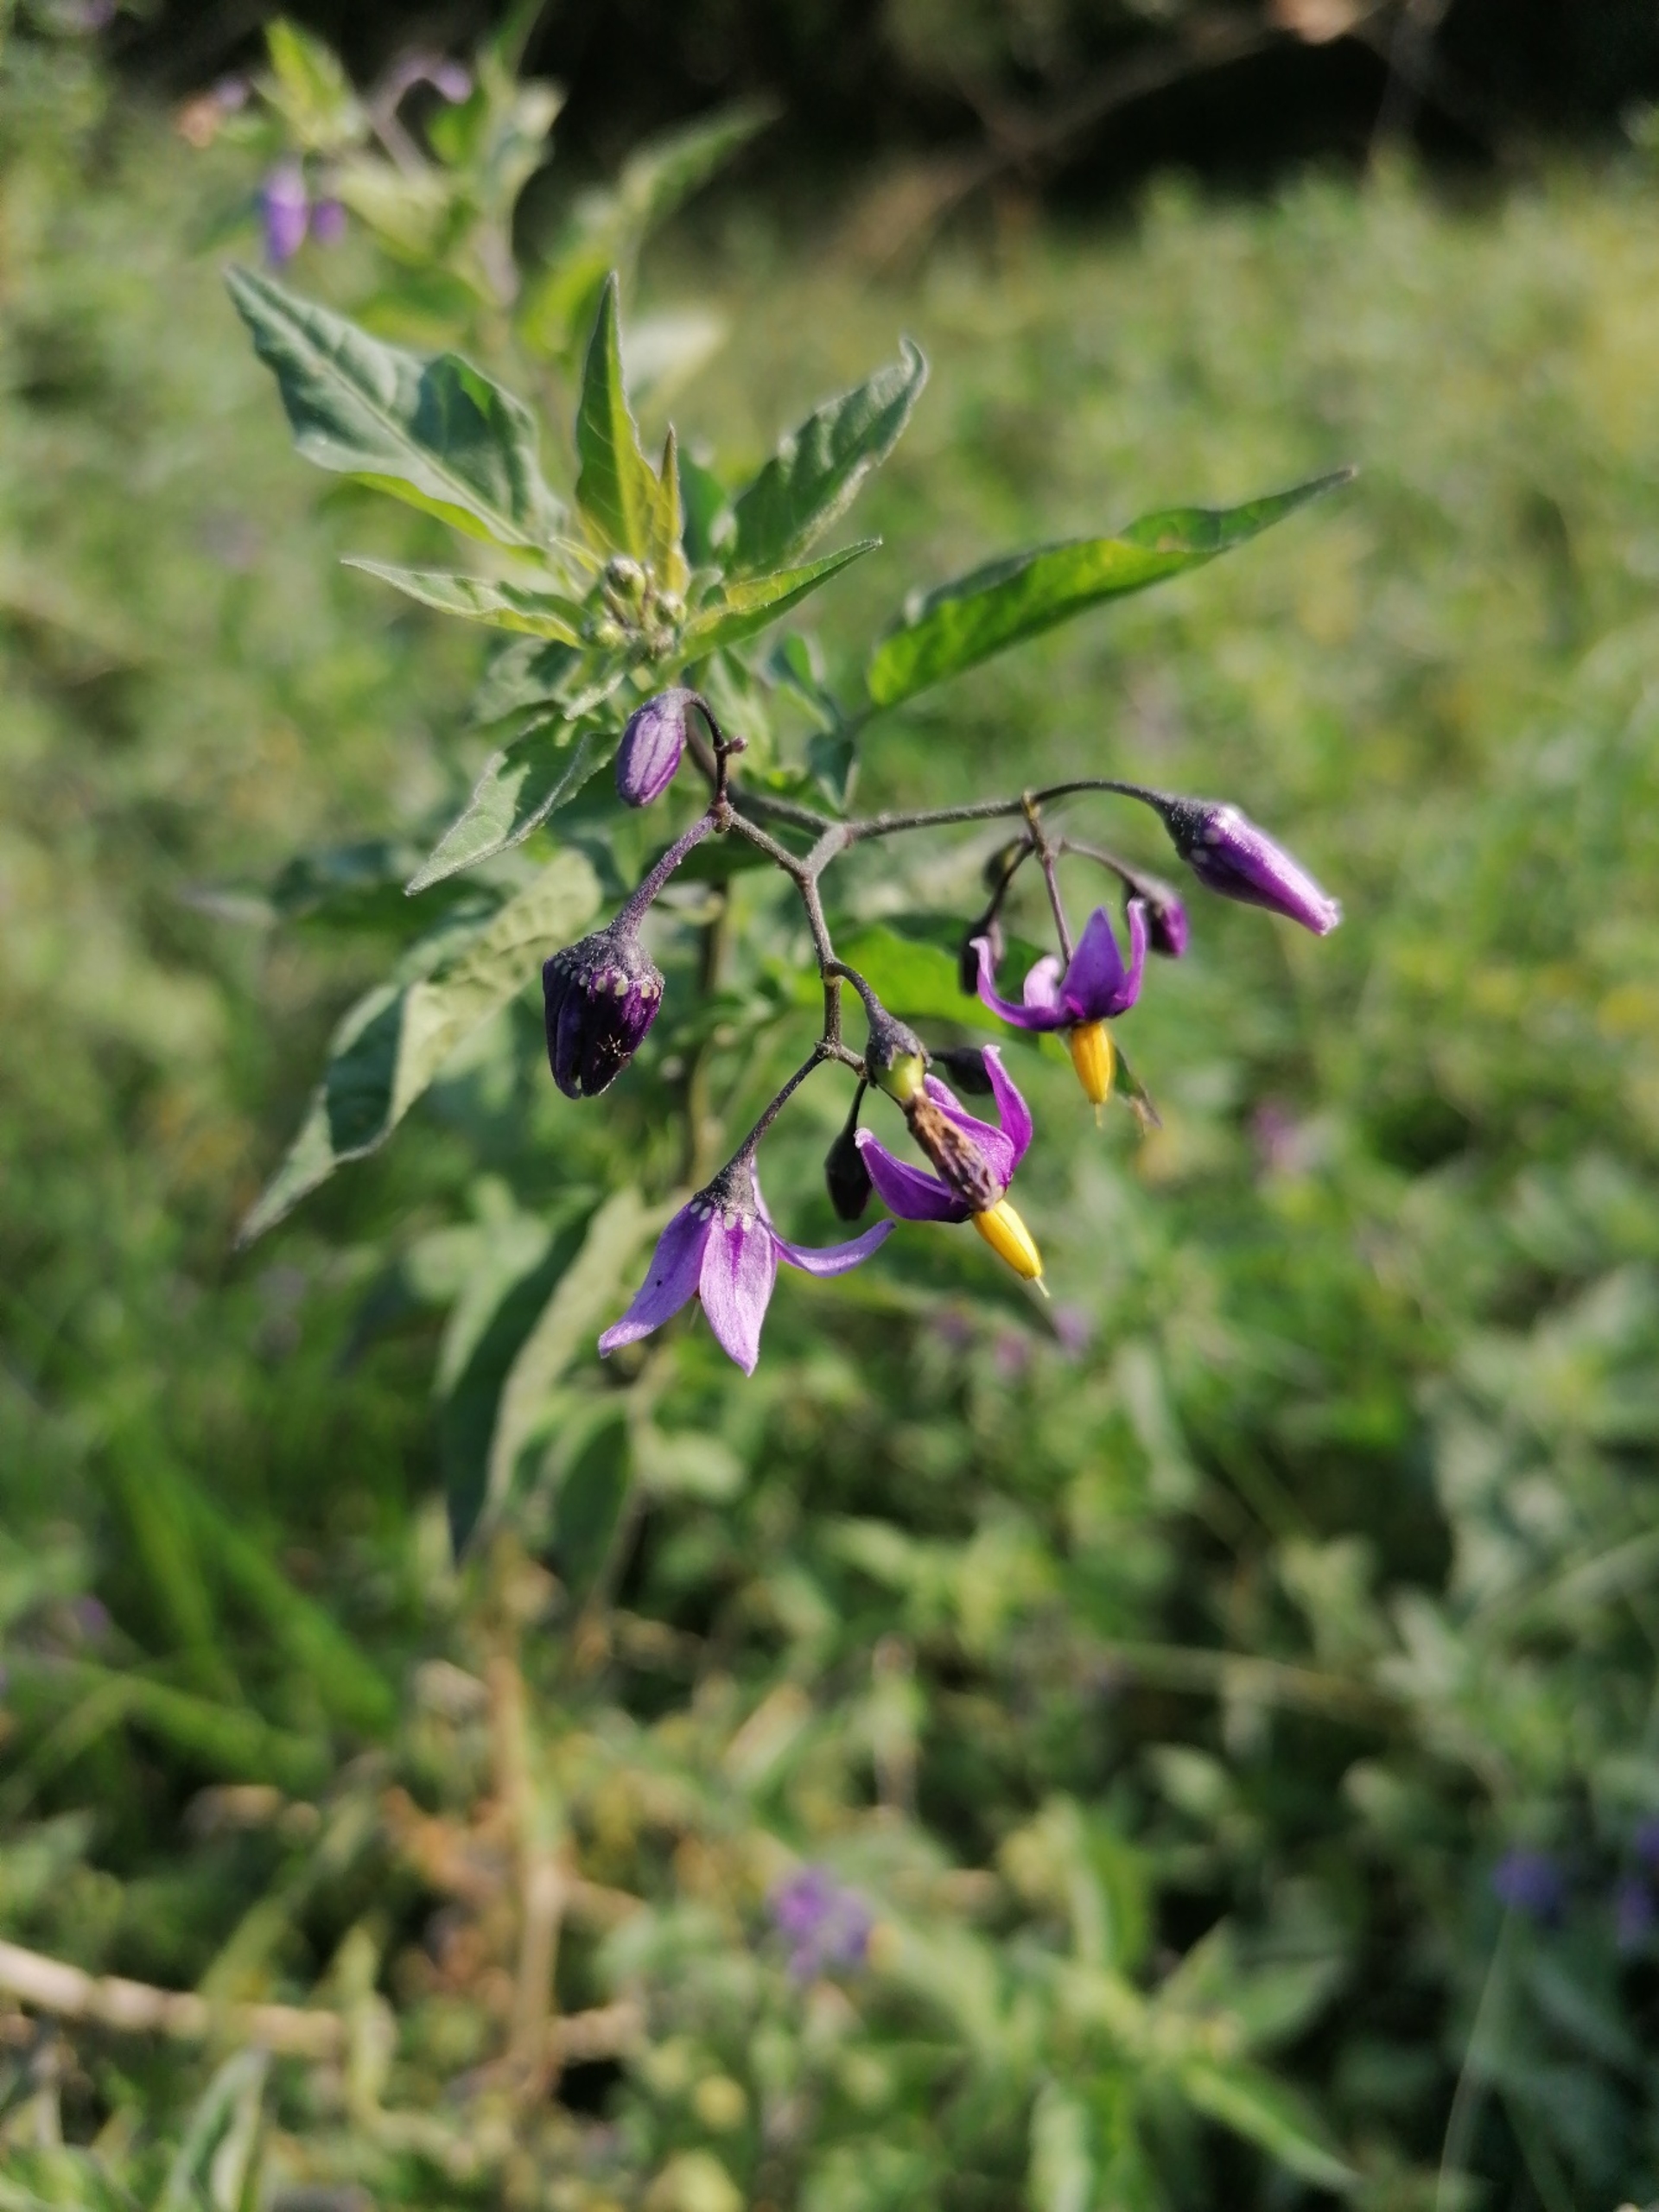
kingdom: Plantae
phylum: Tracheophyta
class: Magnoliopsida
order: Solanales
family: Solanaceae
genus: Solanum
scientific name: Solanum dulcamara
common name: Bittersød natskygge
